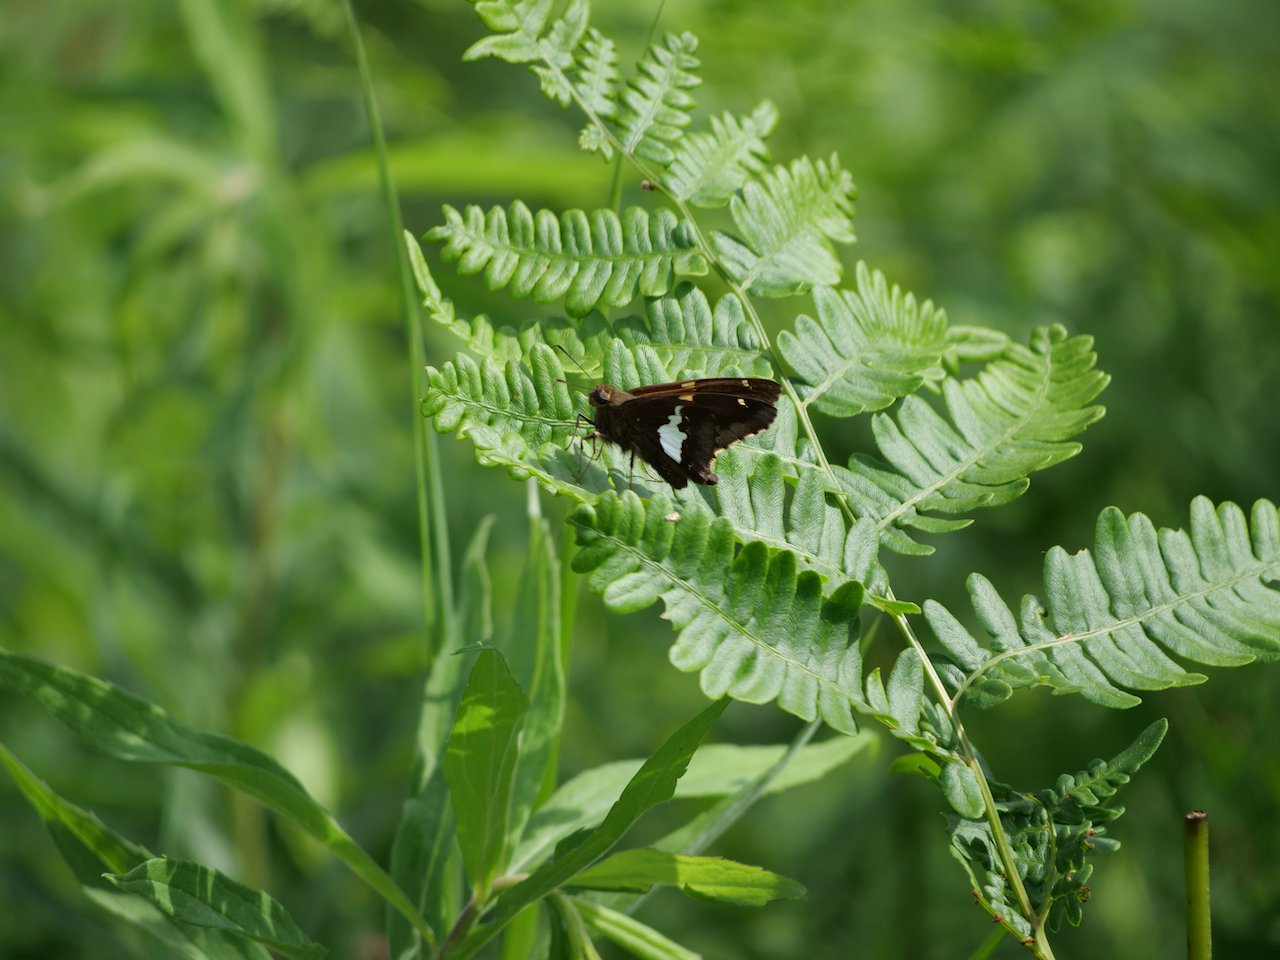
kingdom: Animalia
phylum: Arthropoda
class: Insecta
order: Lepidoptera
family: Hesperiidae
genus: Epargyreus
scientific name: Epargyreus clarus
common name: Silver-spotted Skipper
